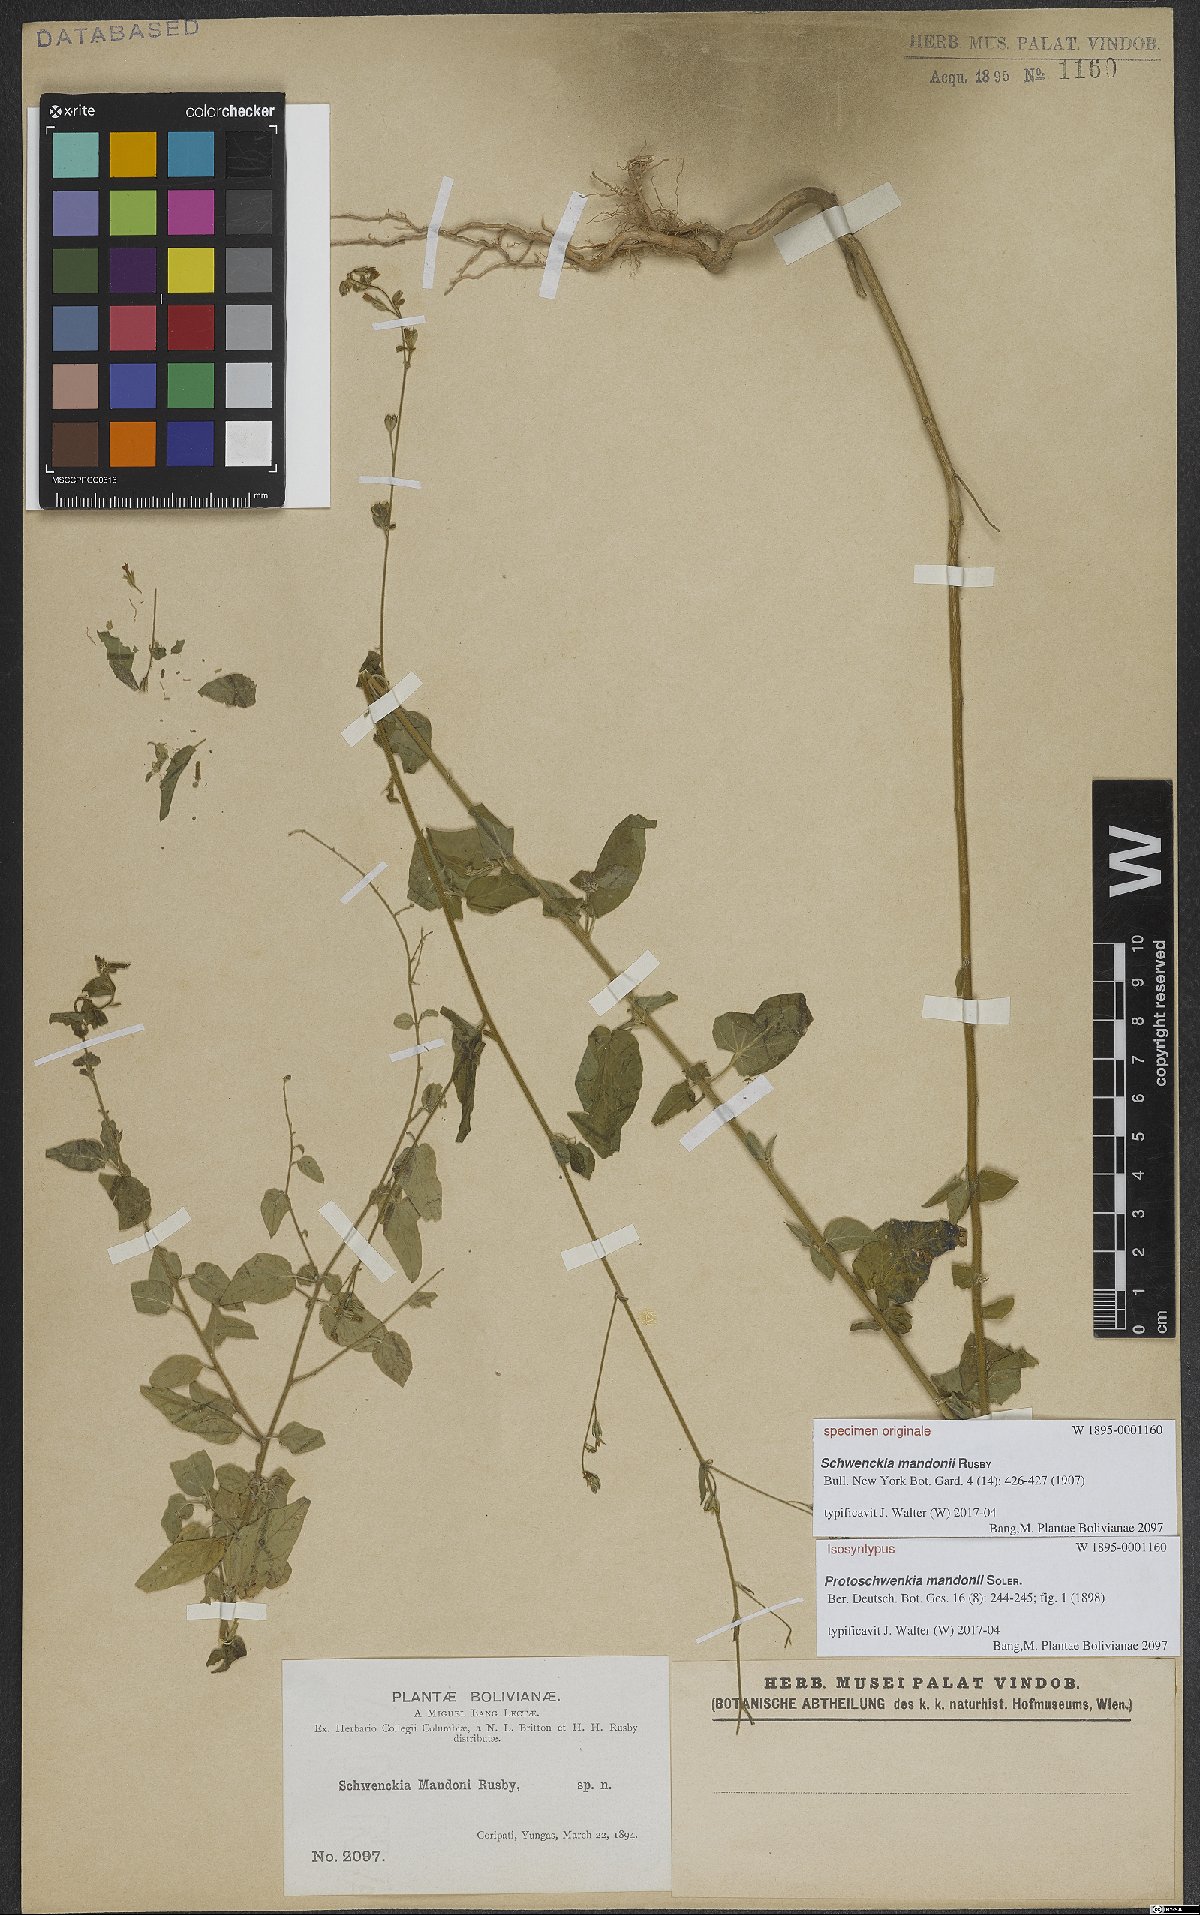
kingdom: Plantae
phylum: Tracheophyta
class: Magnoliopsida
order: Solanales
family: Solanaceae
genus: Protoschwenckia
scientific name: Protoschwenckia mandonii
